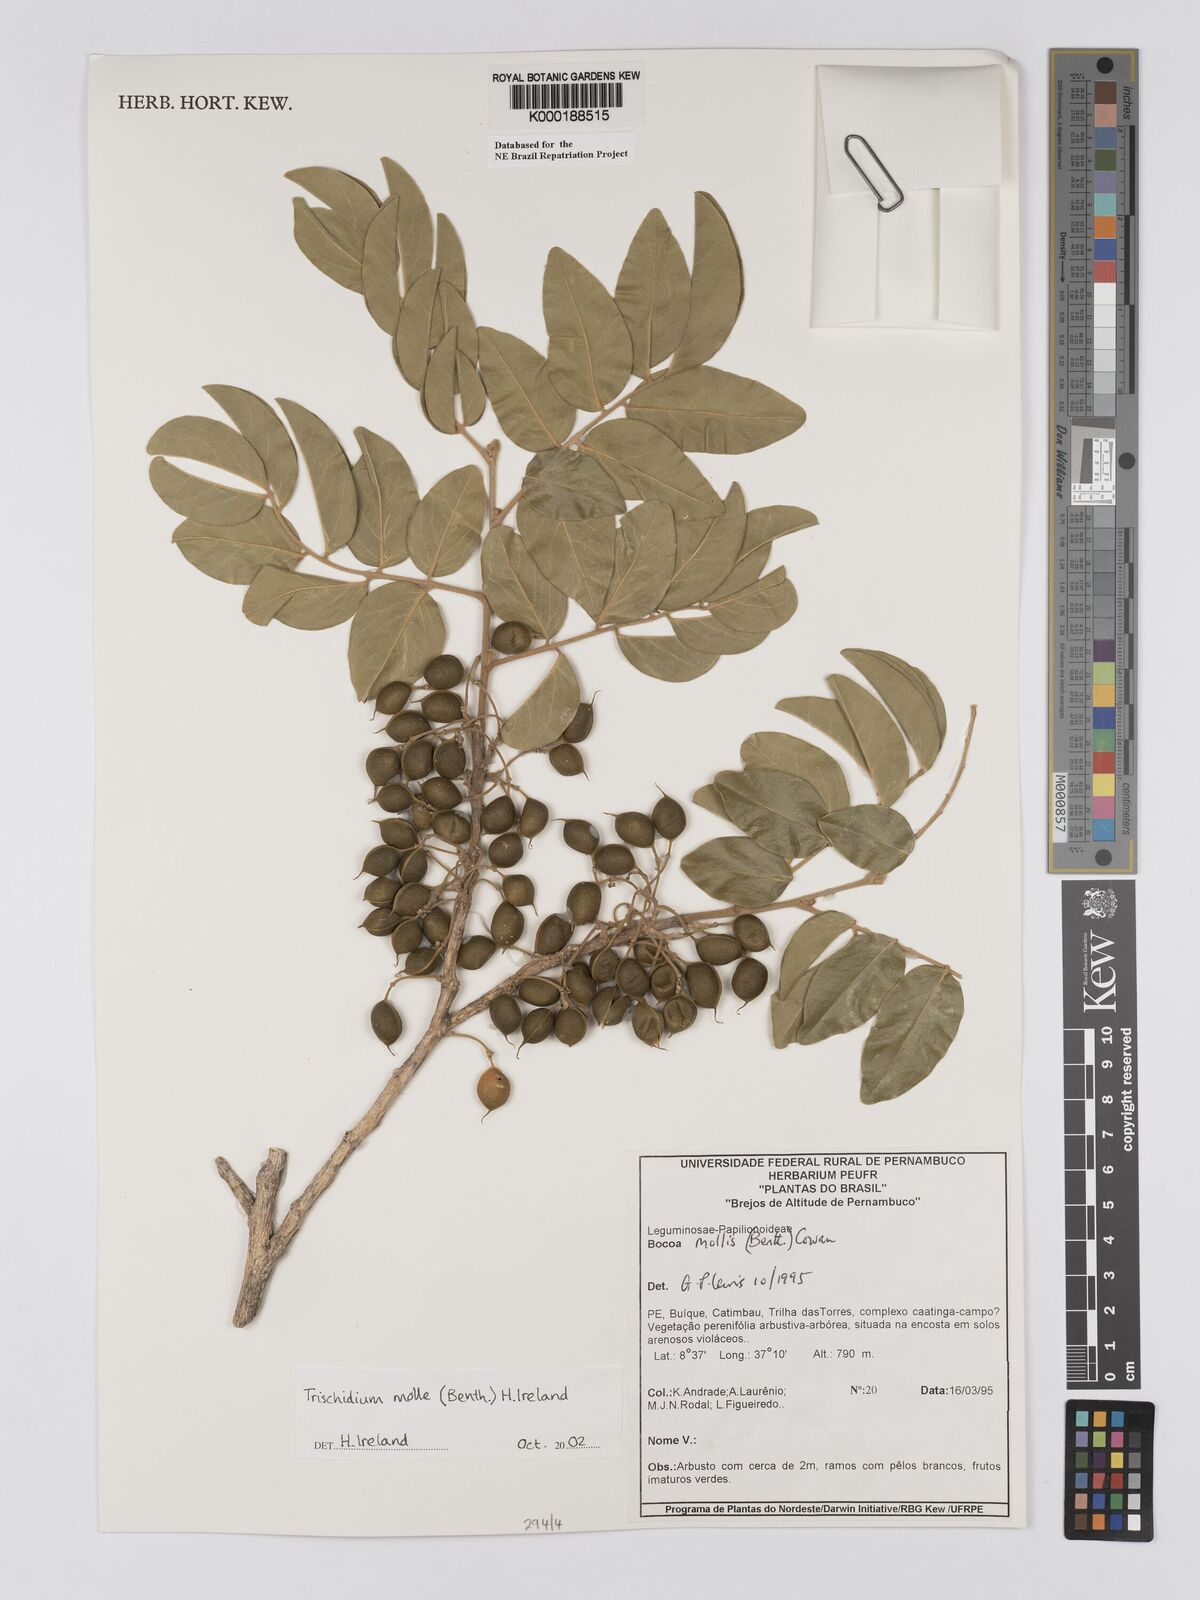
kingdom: Plantae
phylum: Tracheophyta
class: Magnoliopsida
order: Fabales
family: Fabaceae
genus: Trischidium
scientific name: Trischidium
